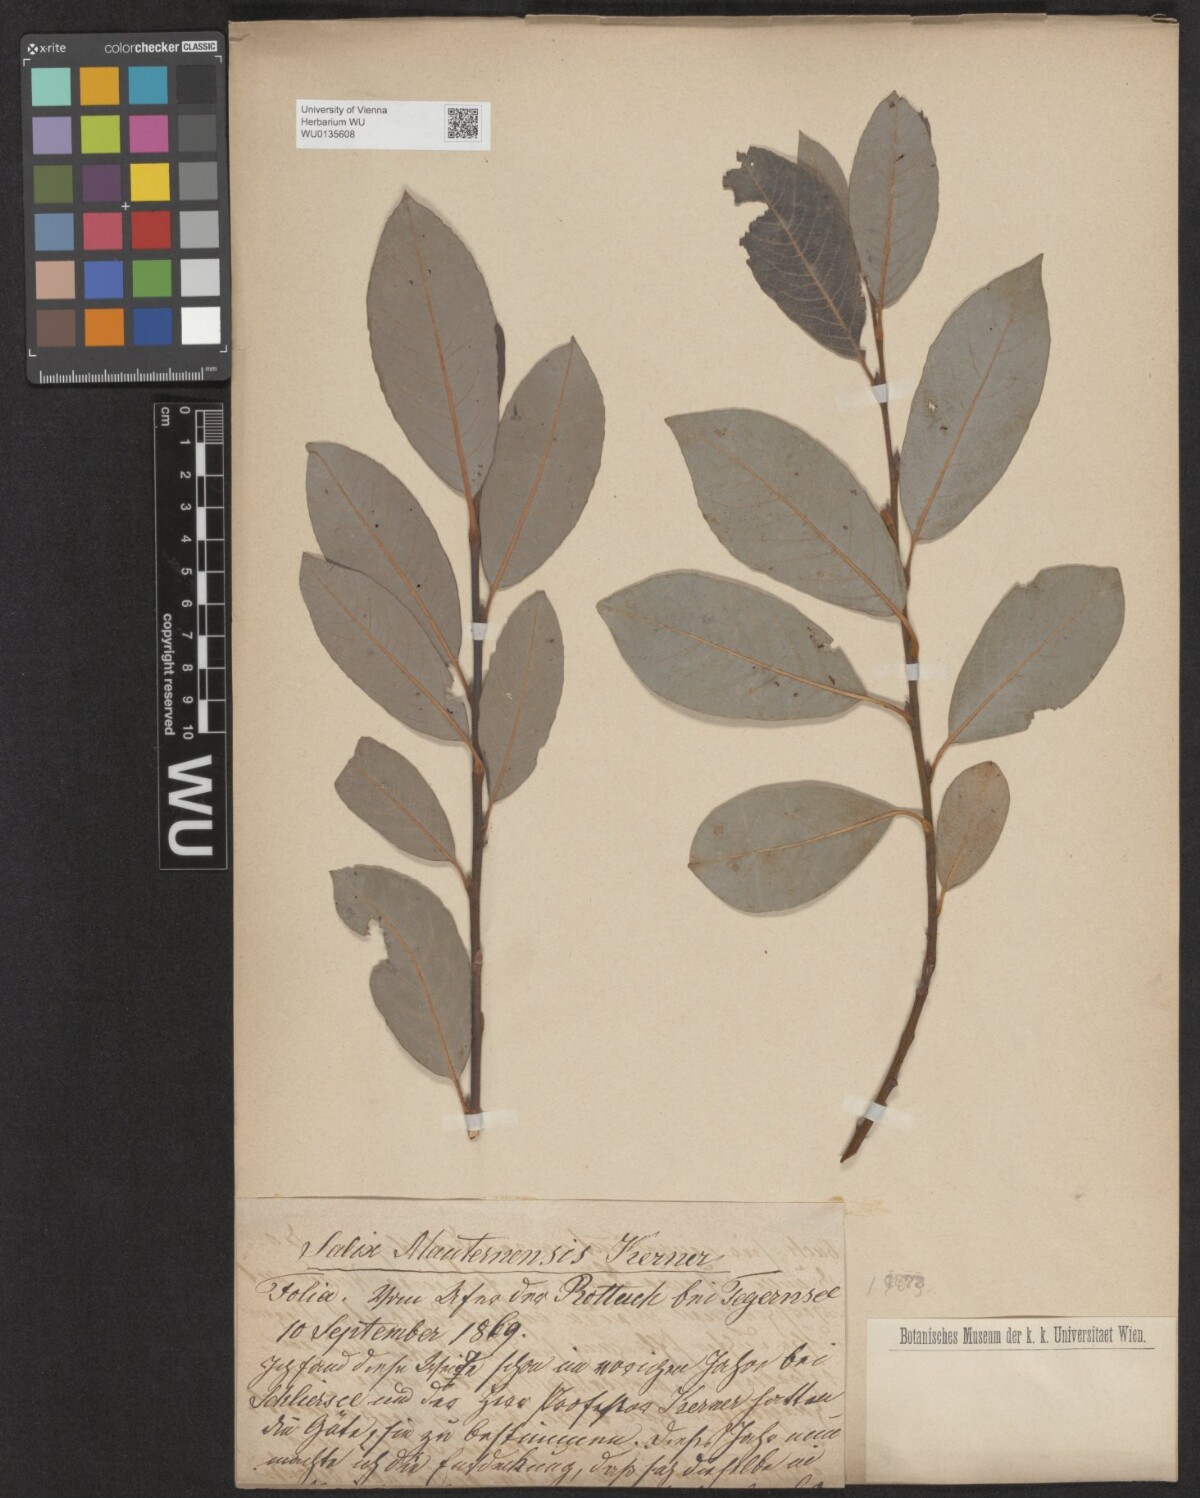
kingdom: Plantae
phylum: Tracheophyta
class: Magnoliopsida
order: Malpighiales
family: Salicaceae
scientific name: Salicaceae
